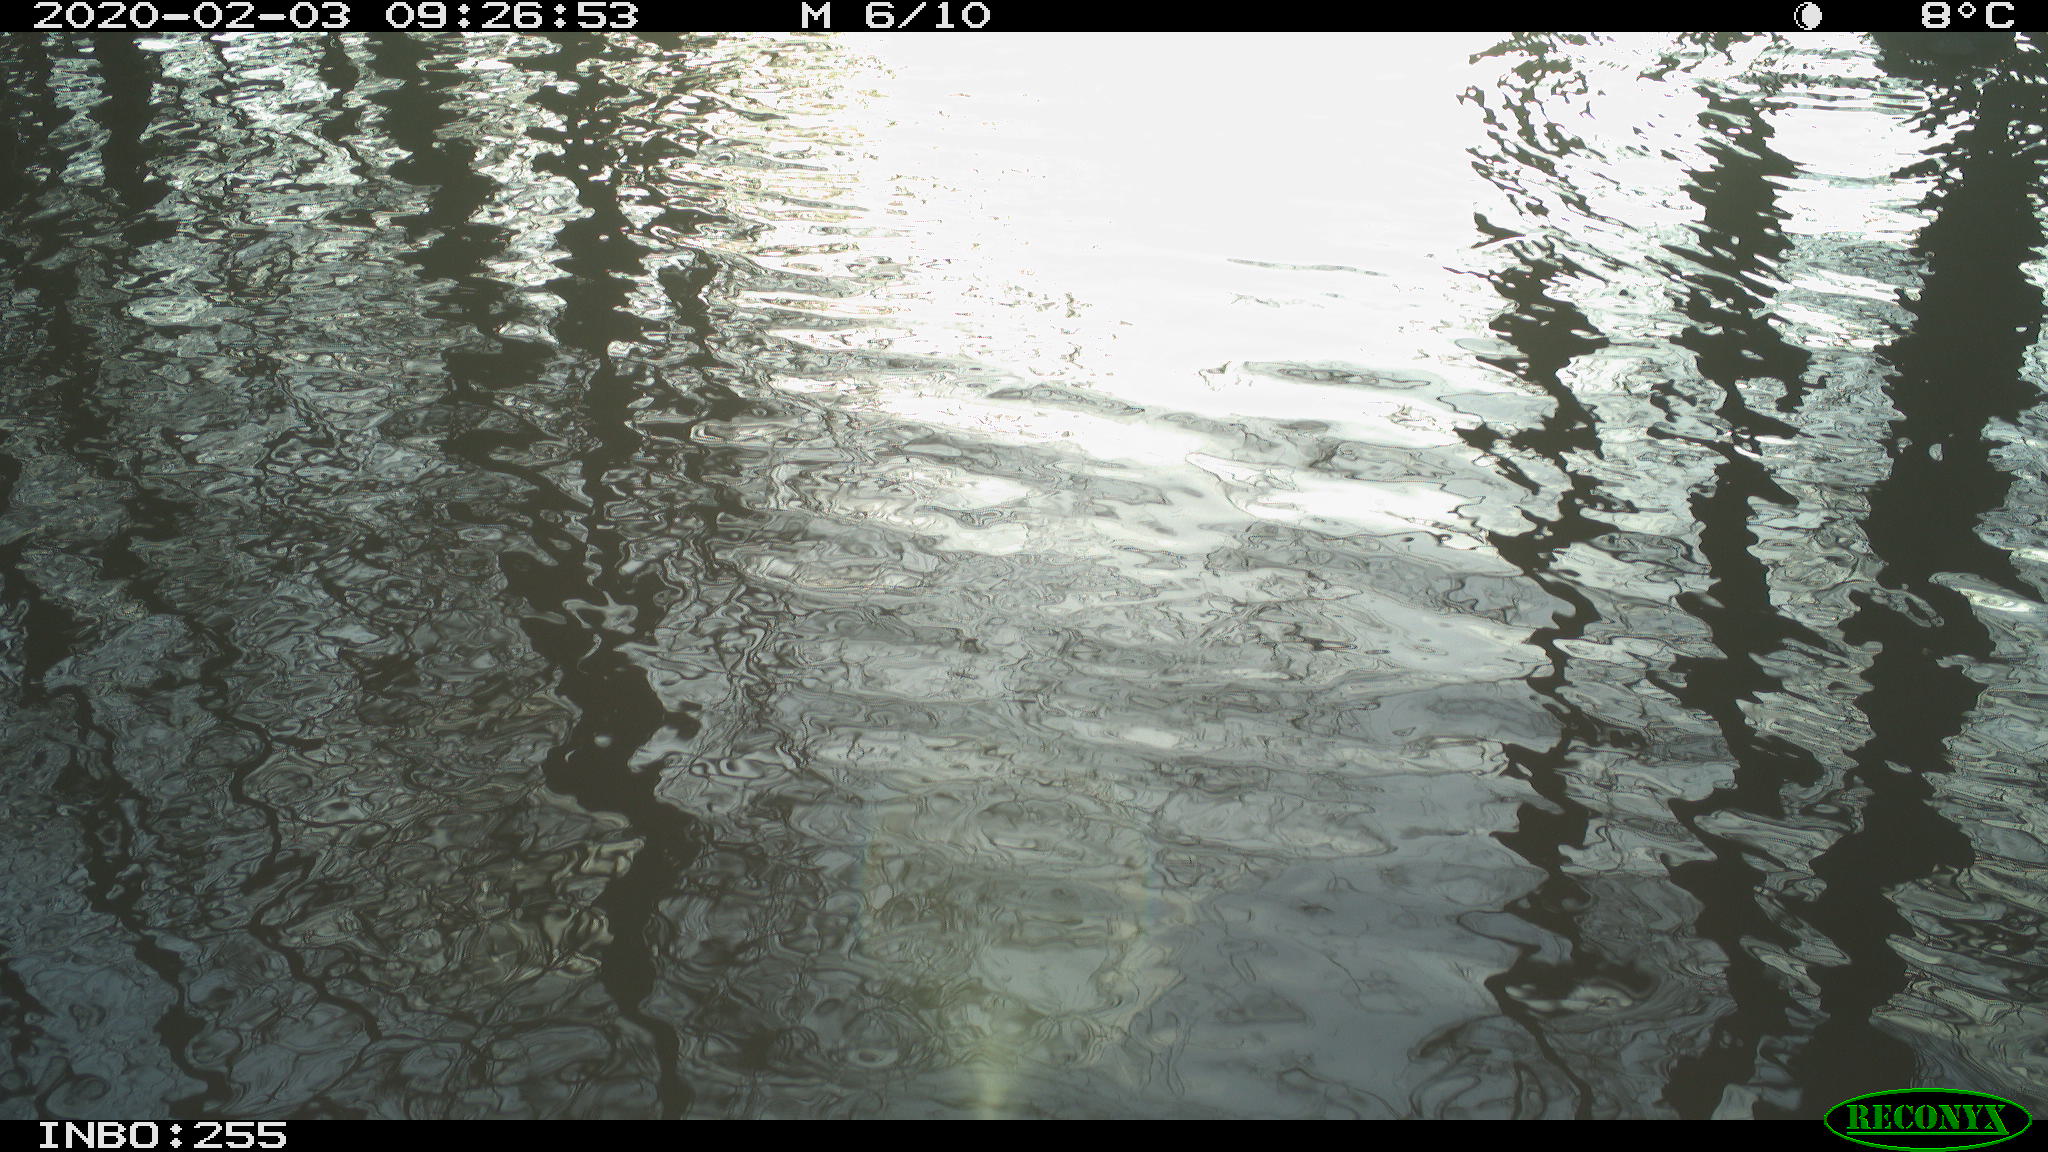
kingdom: Animalia
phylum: Chordata
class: Aves
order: Gruiformes
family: Rallidae
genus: Fulica
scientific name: Fulica atra
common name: Eurasian coot
